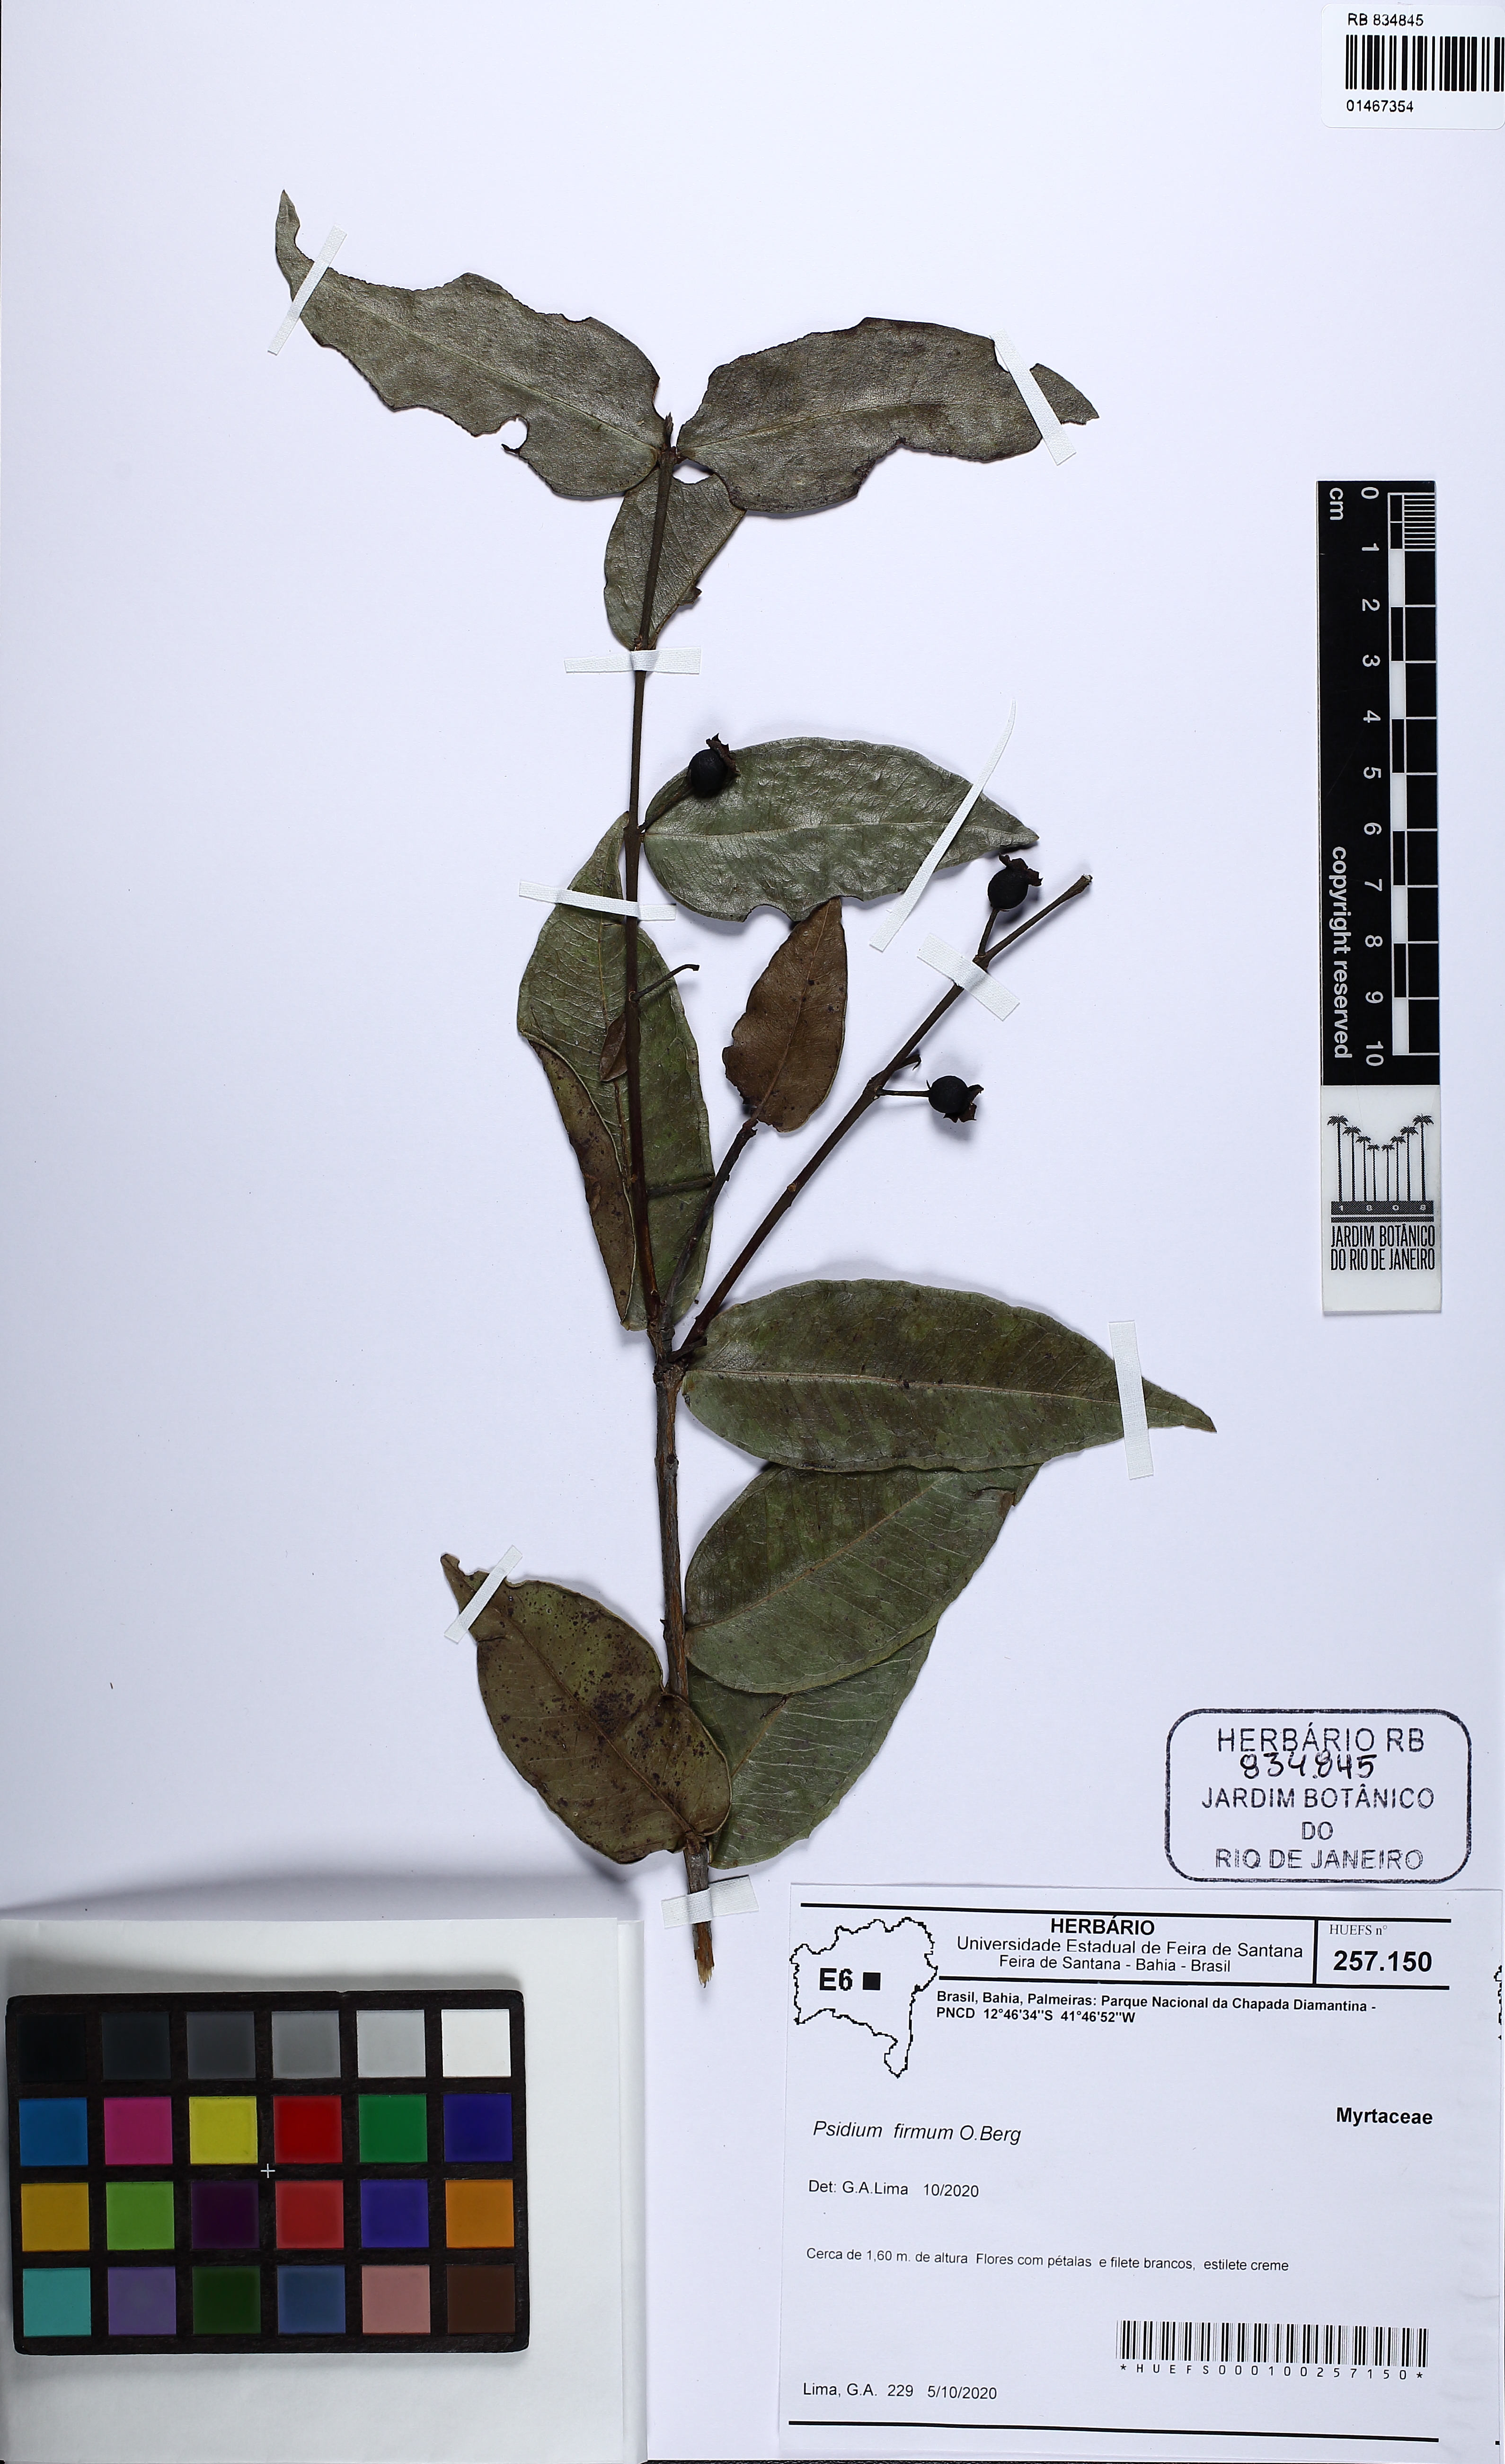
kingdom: Plantae
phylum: Tracheophyta
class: Magnoliopsida
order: Myrtales
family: Myrtaceae
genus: Psidium
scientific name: Psidium firmum
